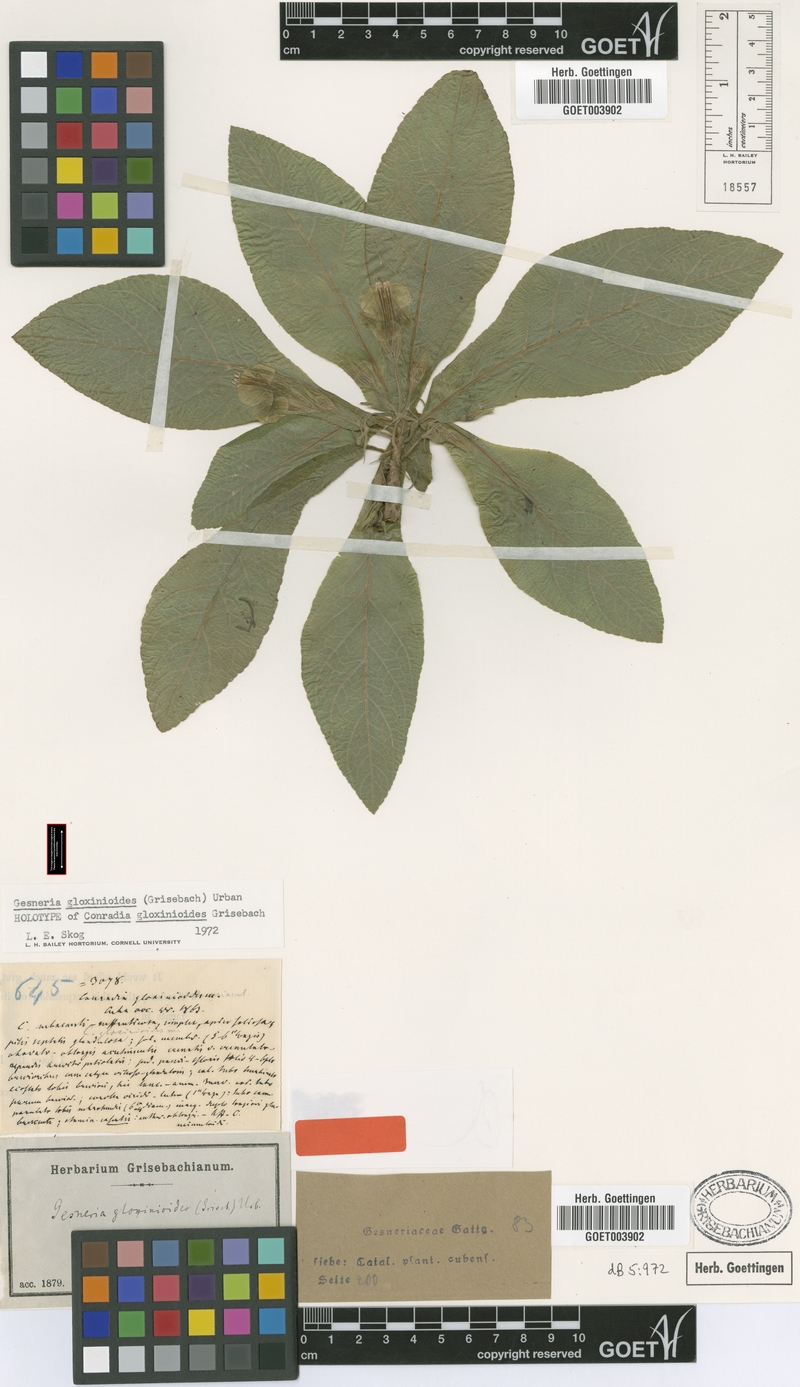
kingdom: Plantae
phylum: Tracheophyta
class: Magnoliopsida
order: Lamiales
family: Gesneriaceae
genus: Gesneria
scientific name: Gesneria gloxinioides
